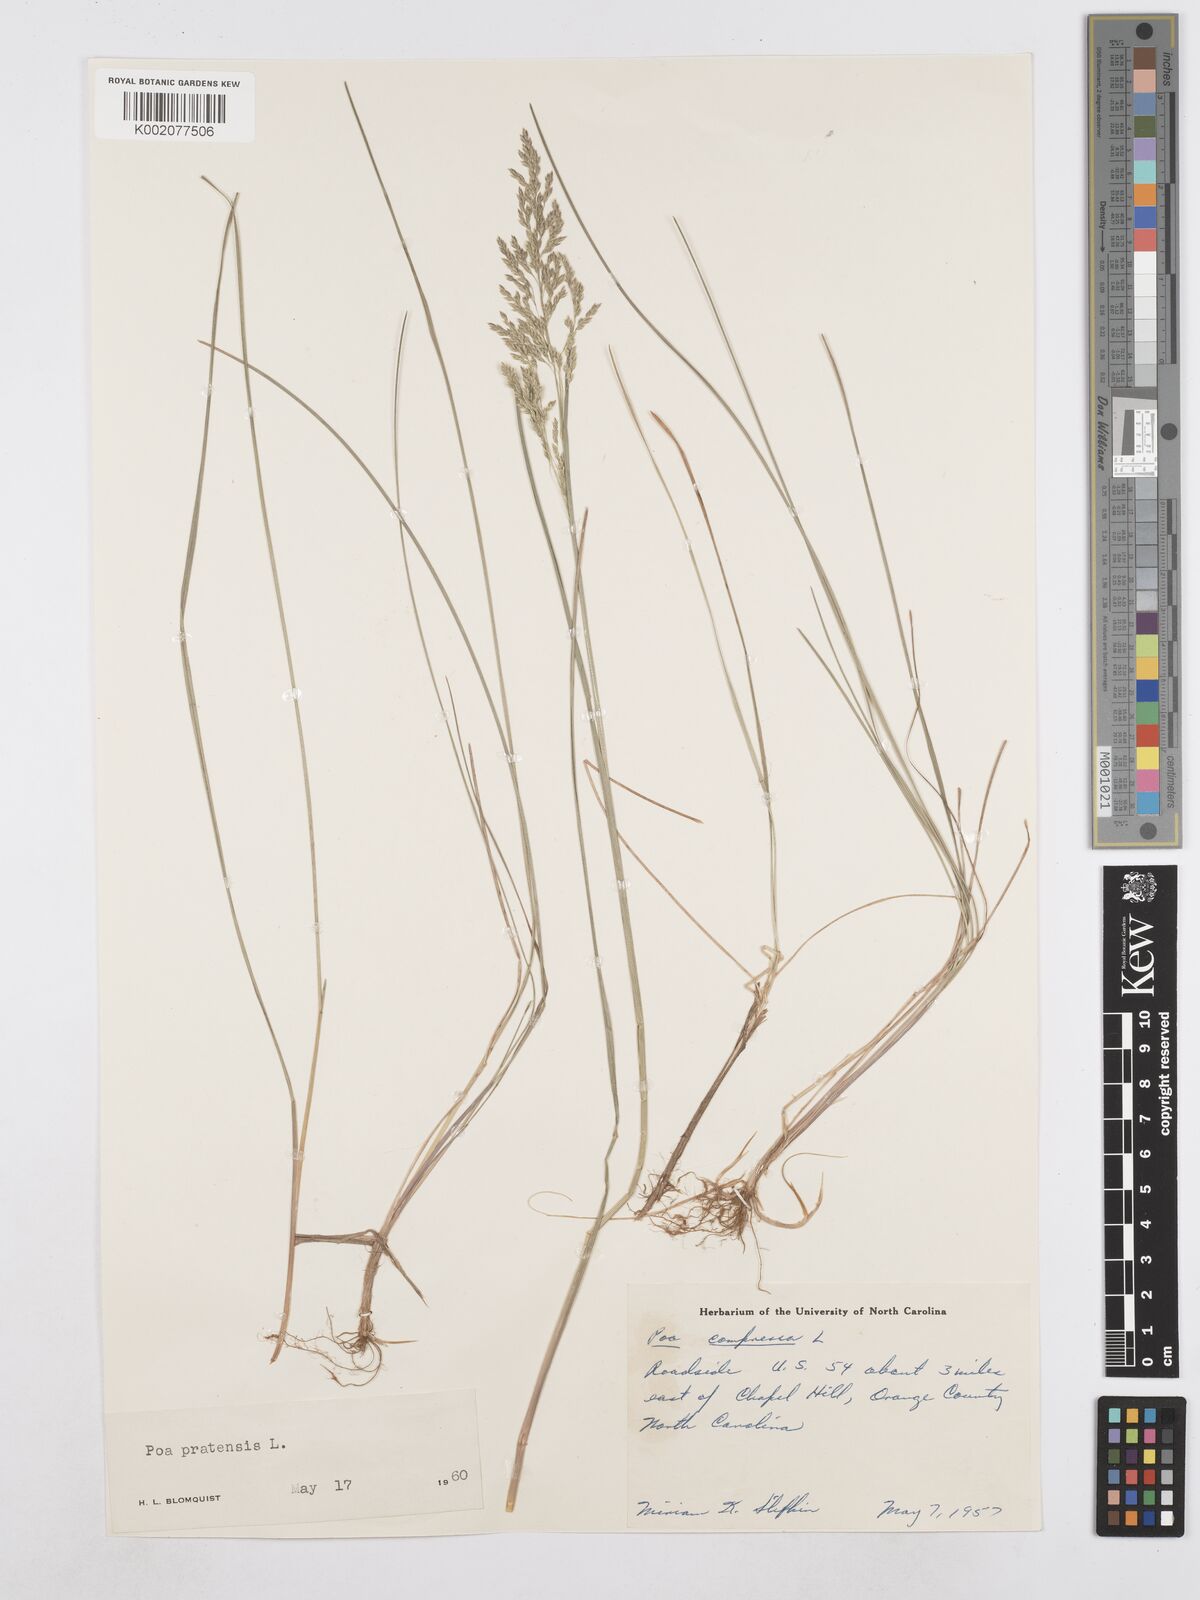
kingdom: Plantae
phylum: Tracheophyta
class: Liliopsida
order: Poales
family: Poaceae
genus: Poa
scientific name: Poa compressa
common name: Canada bluegrass
